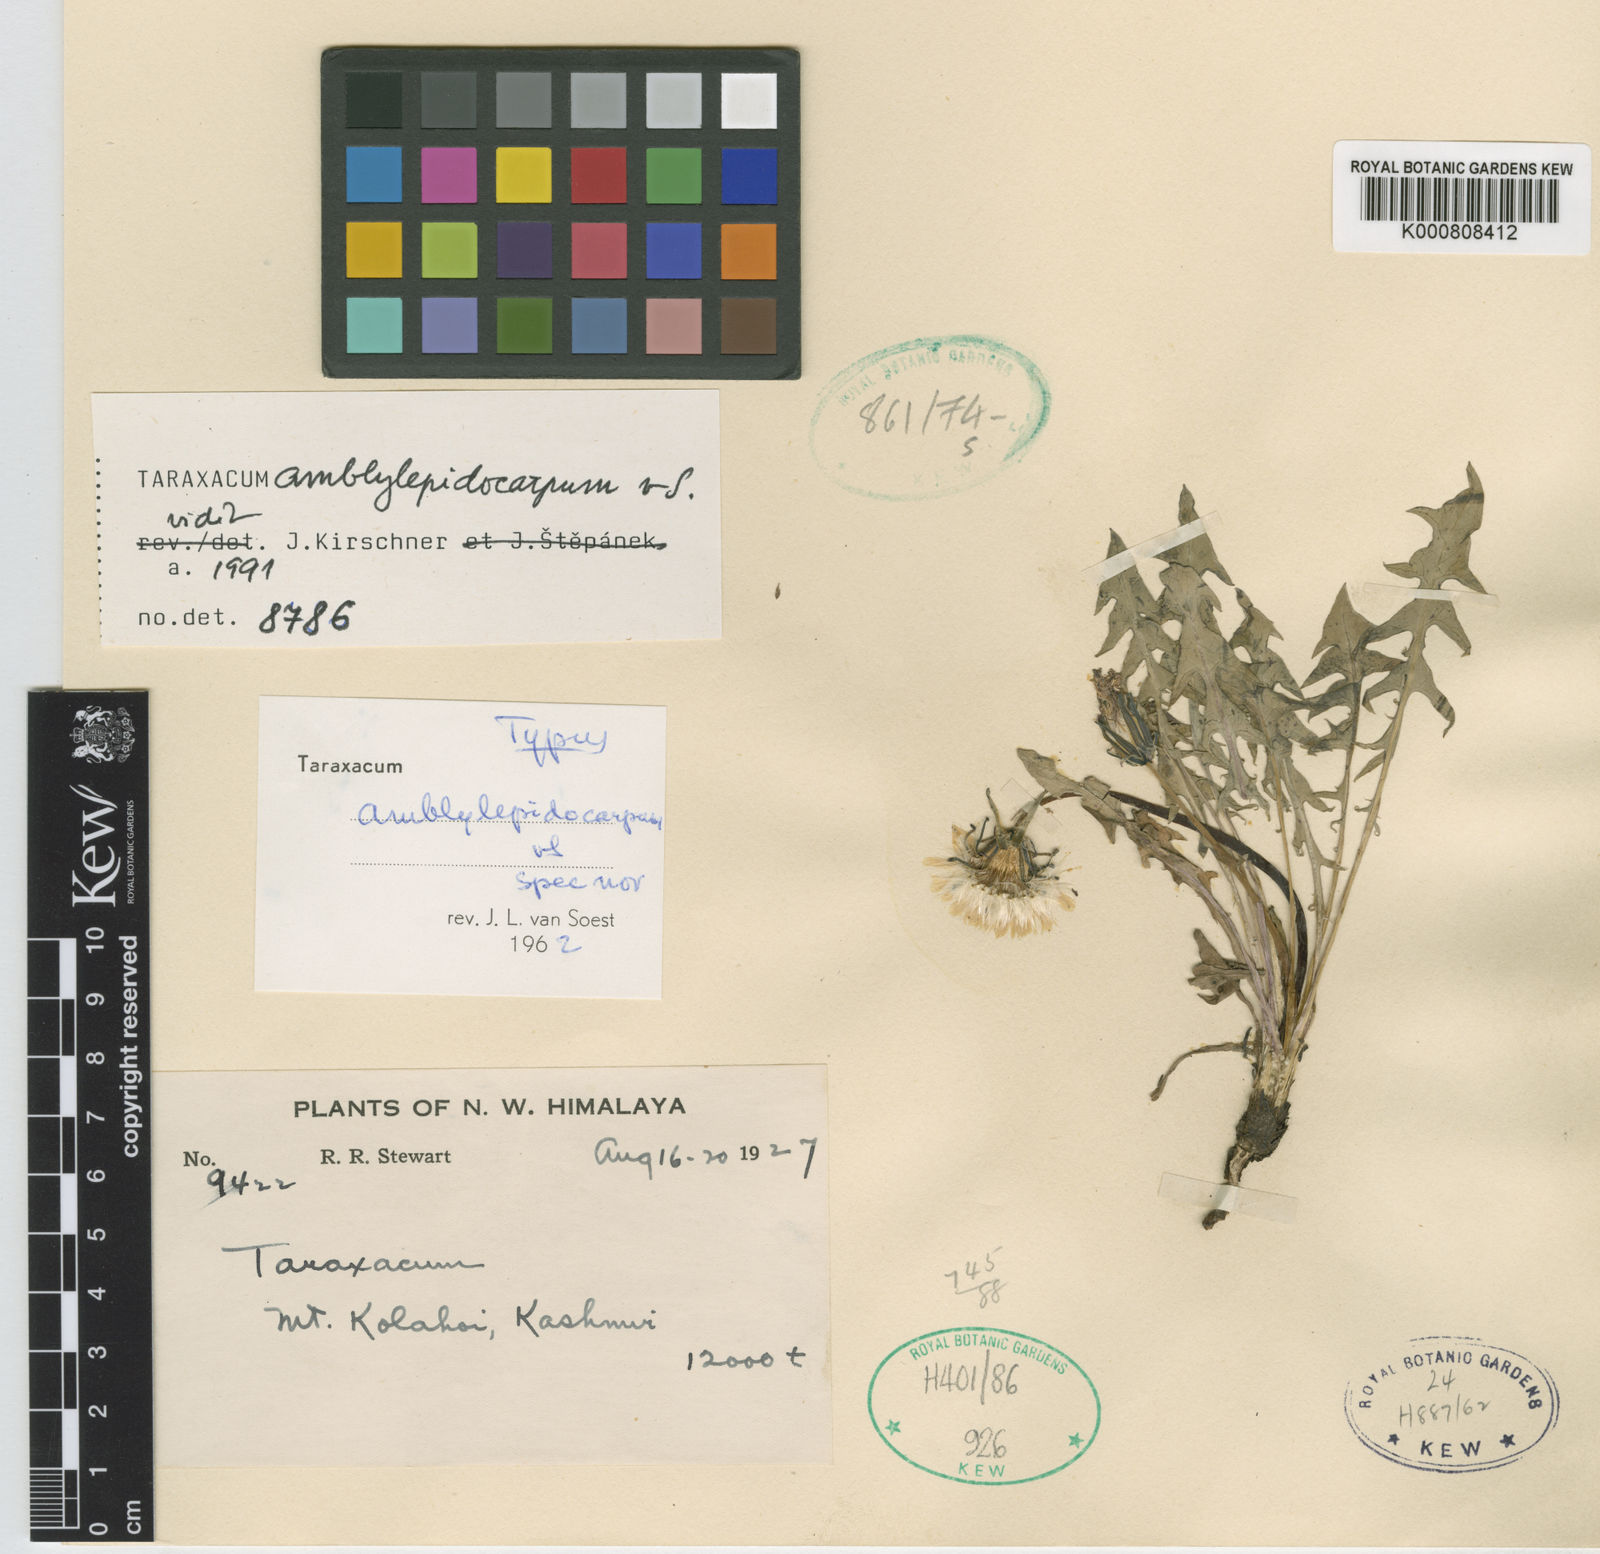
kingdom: Plantae
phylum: Tracheophyta
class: Magnoliopsida
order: Asterales
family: Asteraceae
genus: Taraxacum
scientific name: Taraxacum
